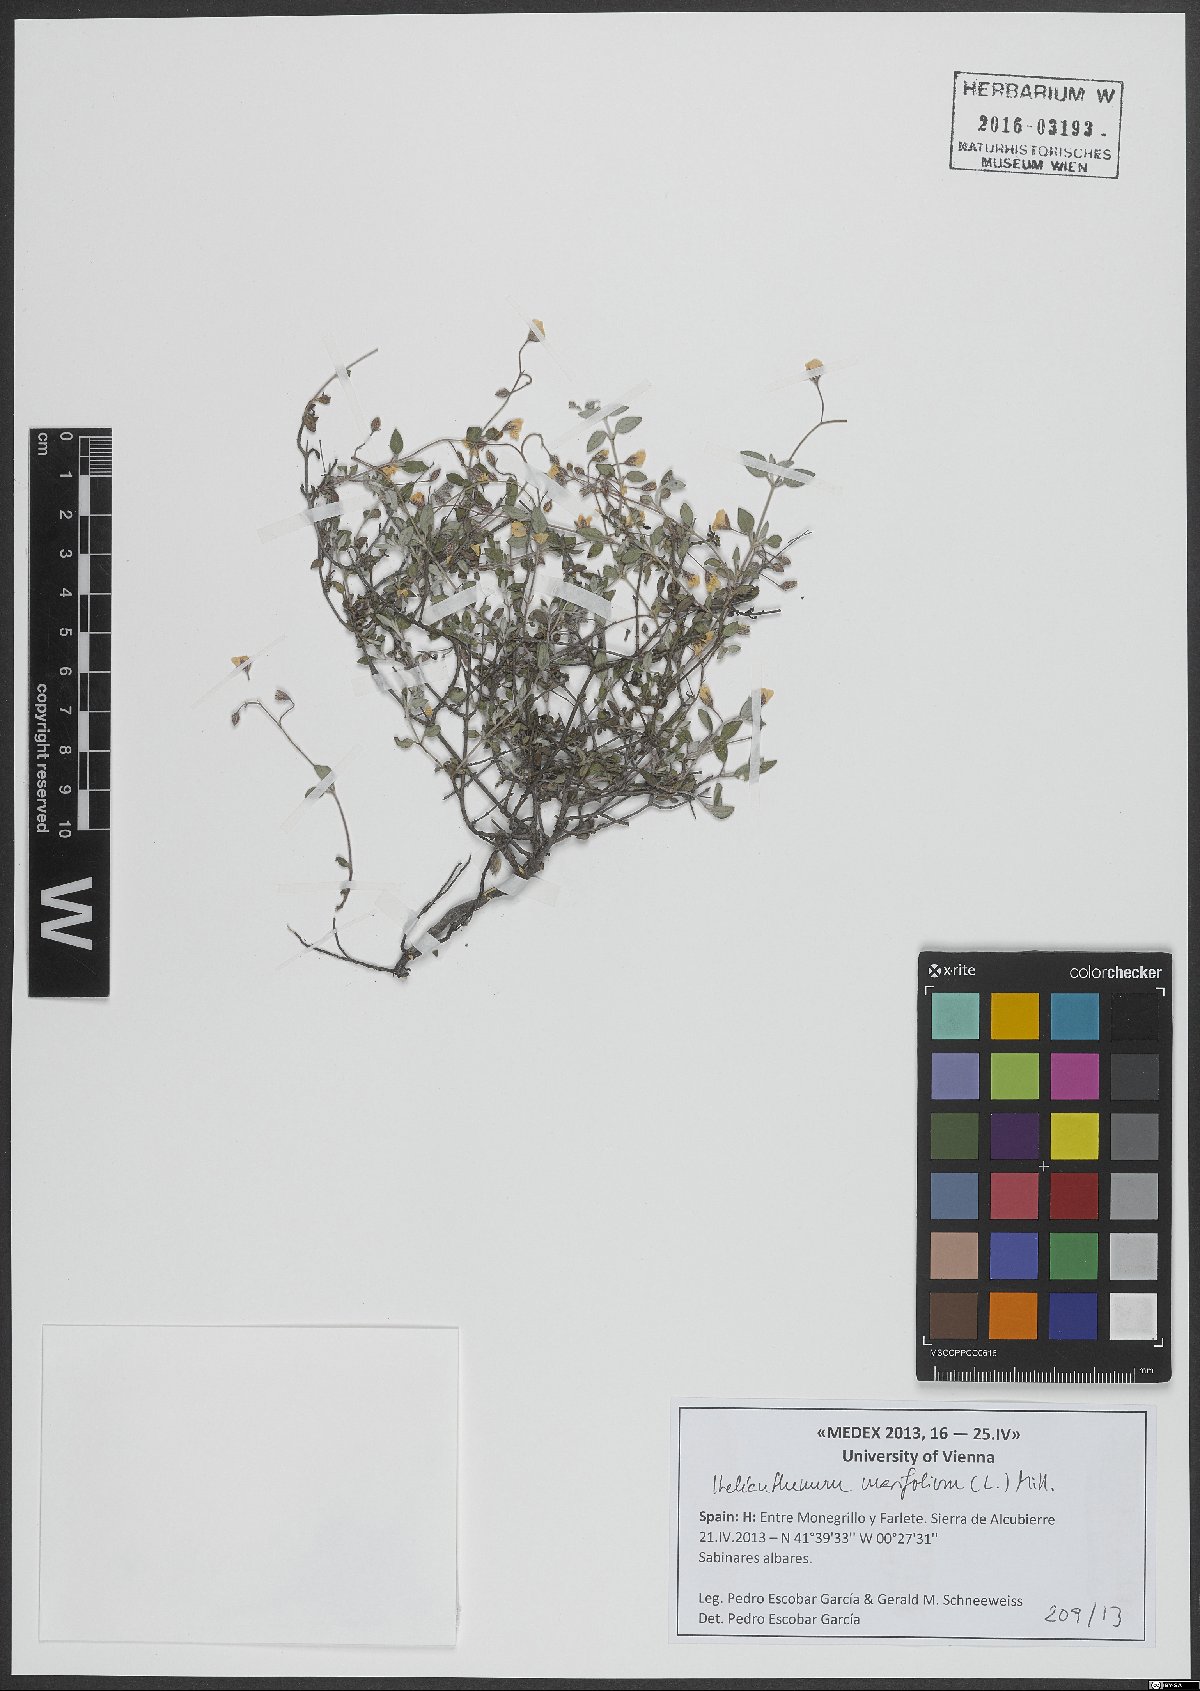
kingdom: Plantae
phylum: Tracheophyta
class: Magnoliopsida
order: Malvales
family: Cistaceae
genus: Helianthemum
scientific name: Helianthemum marifolium
